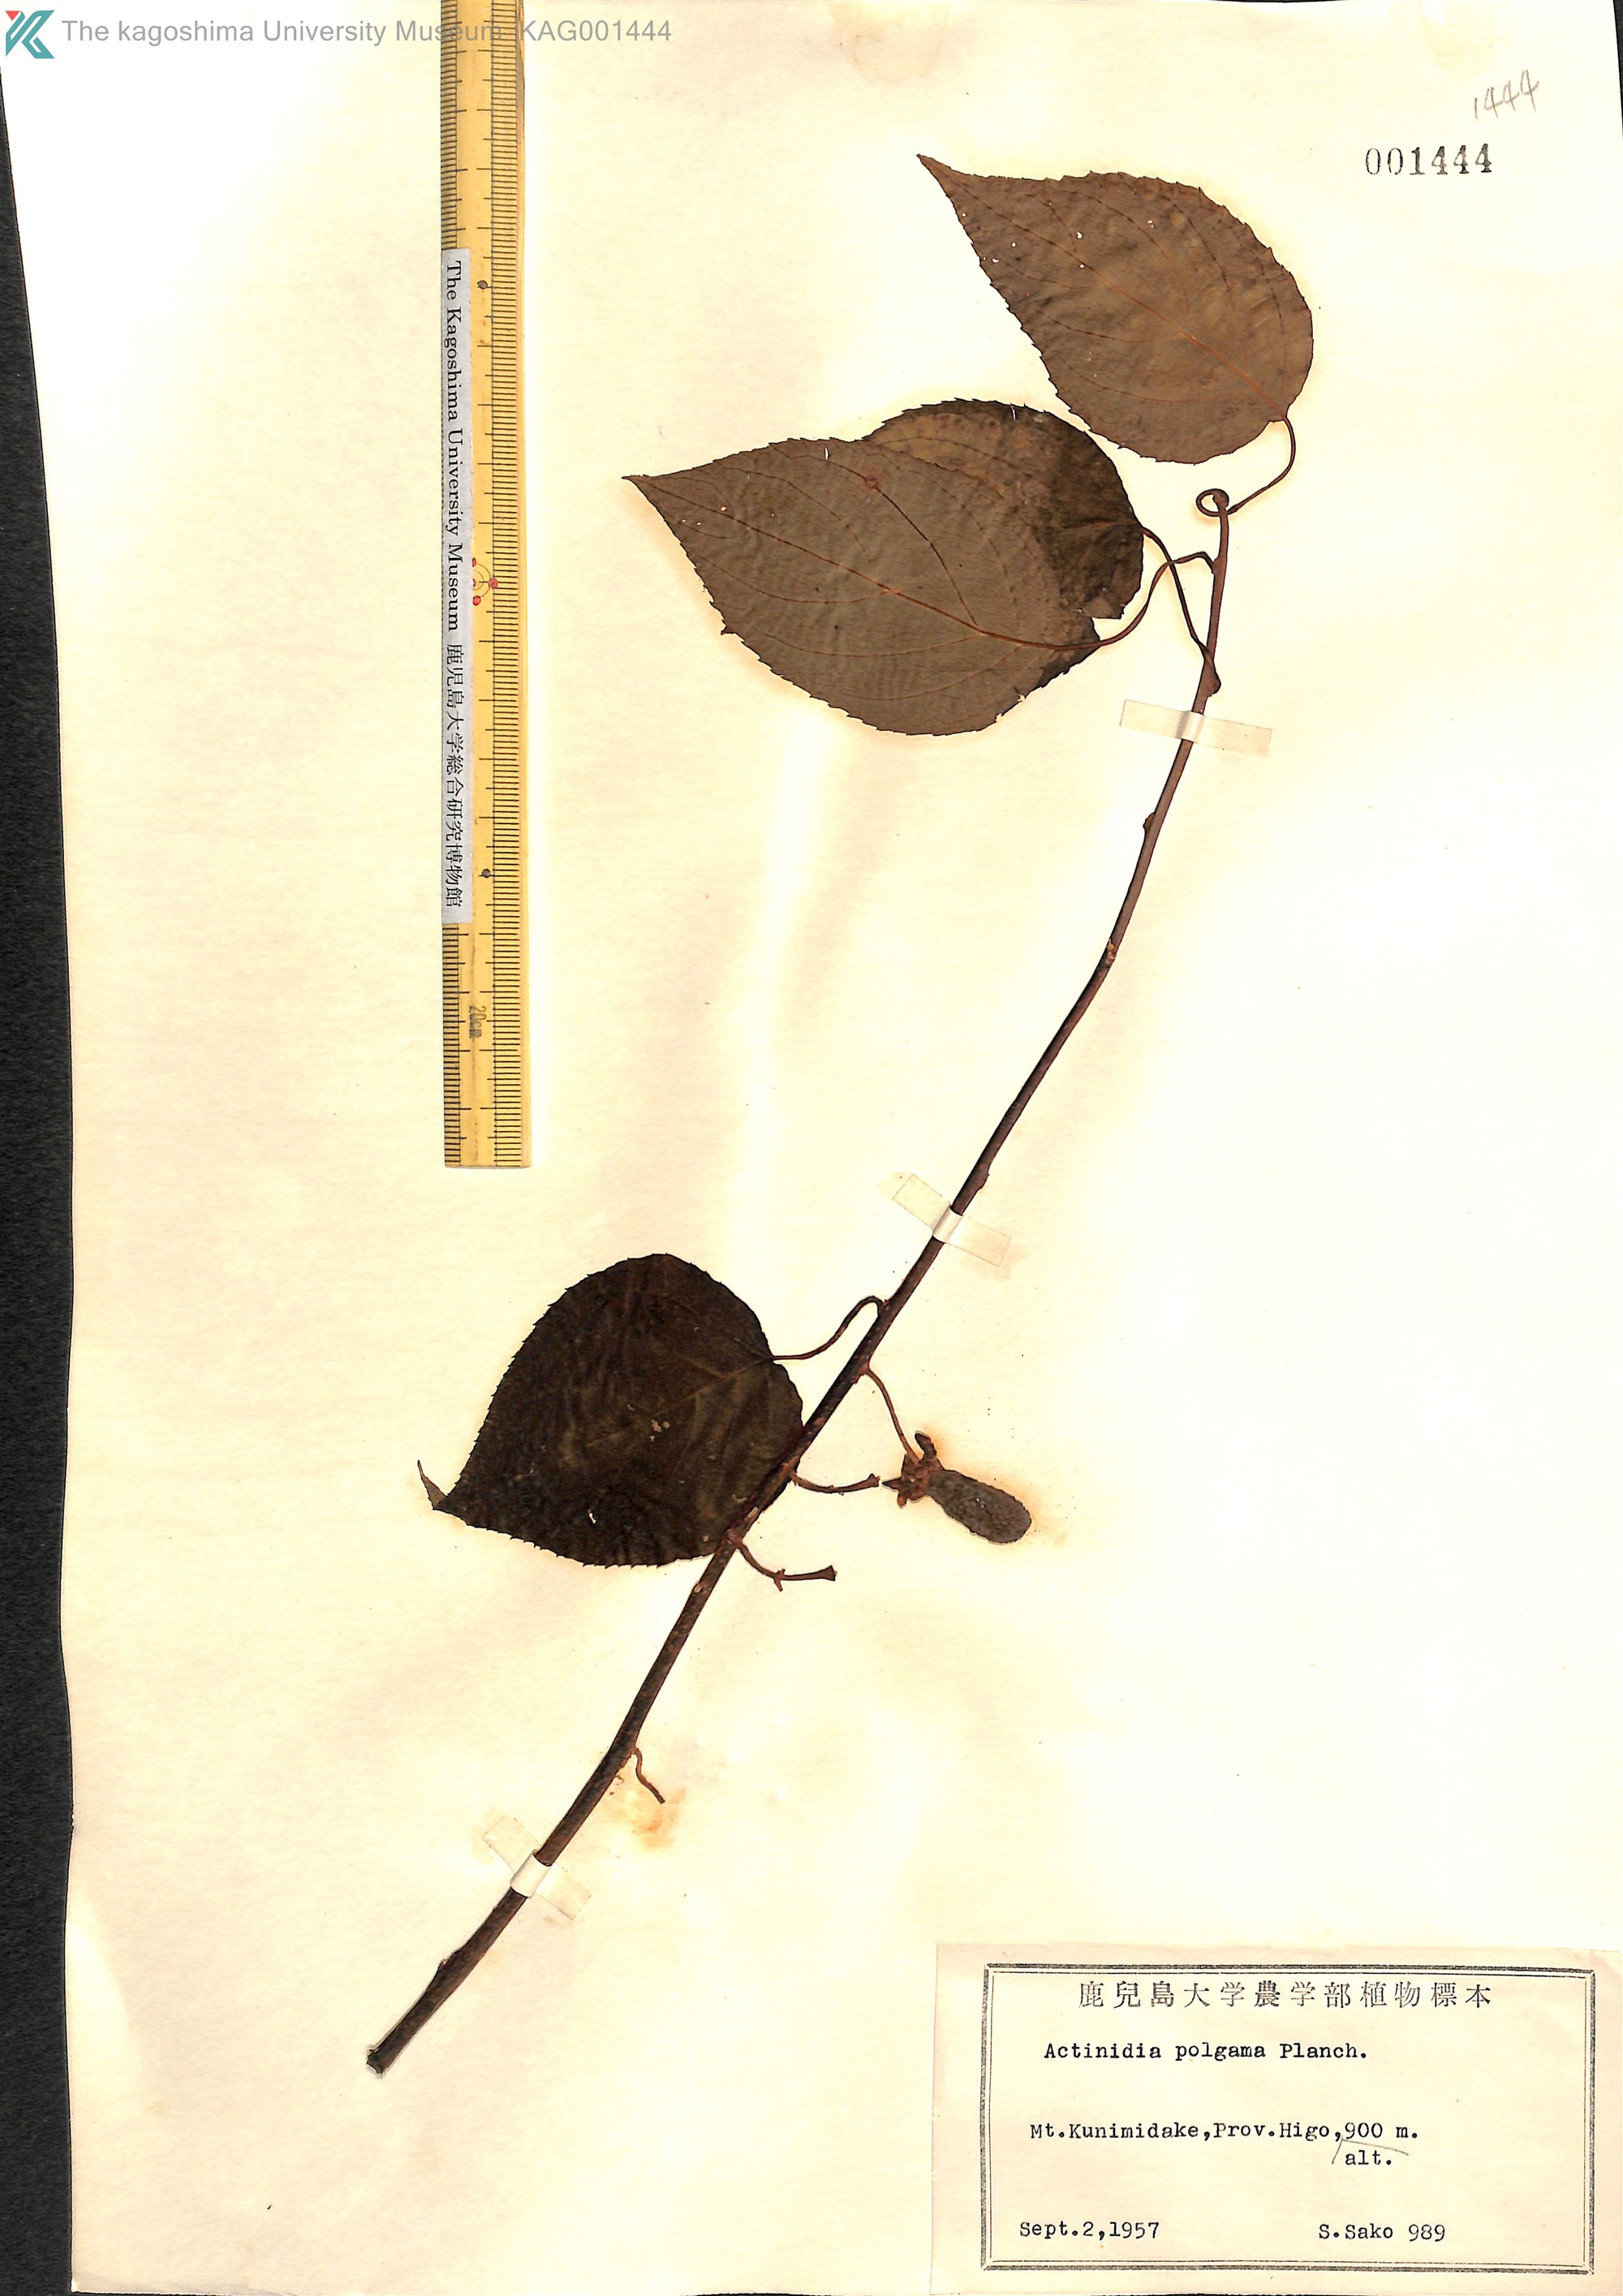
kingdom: Plantae
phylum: Tracheophyta
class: Magnoliopsida
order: Ericales
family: Actinidiaceae
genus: Actinidia
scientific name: Actinidia polygama
